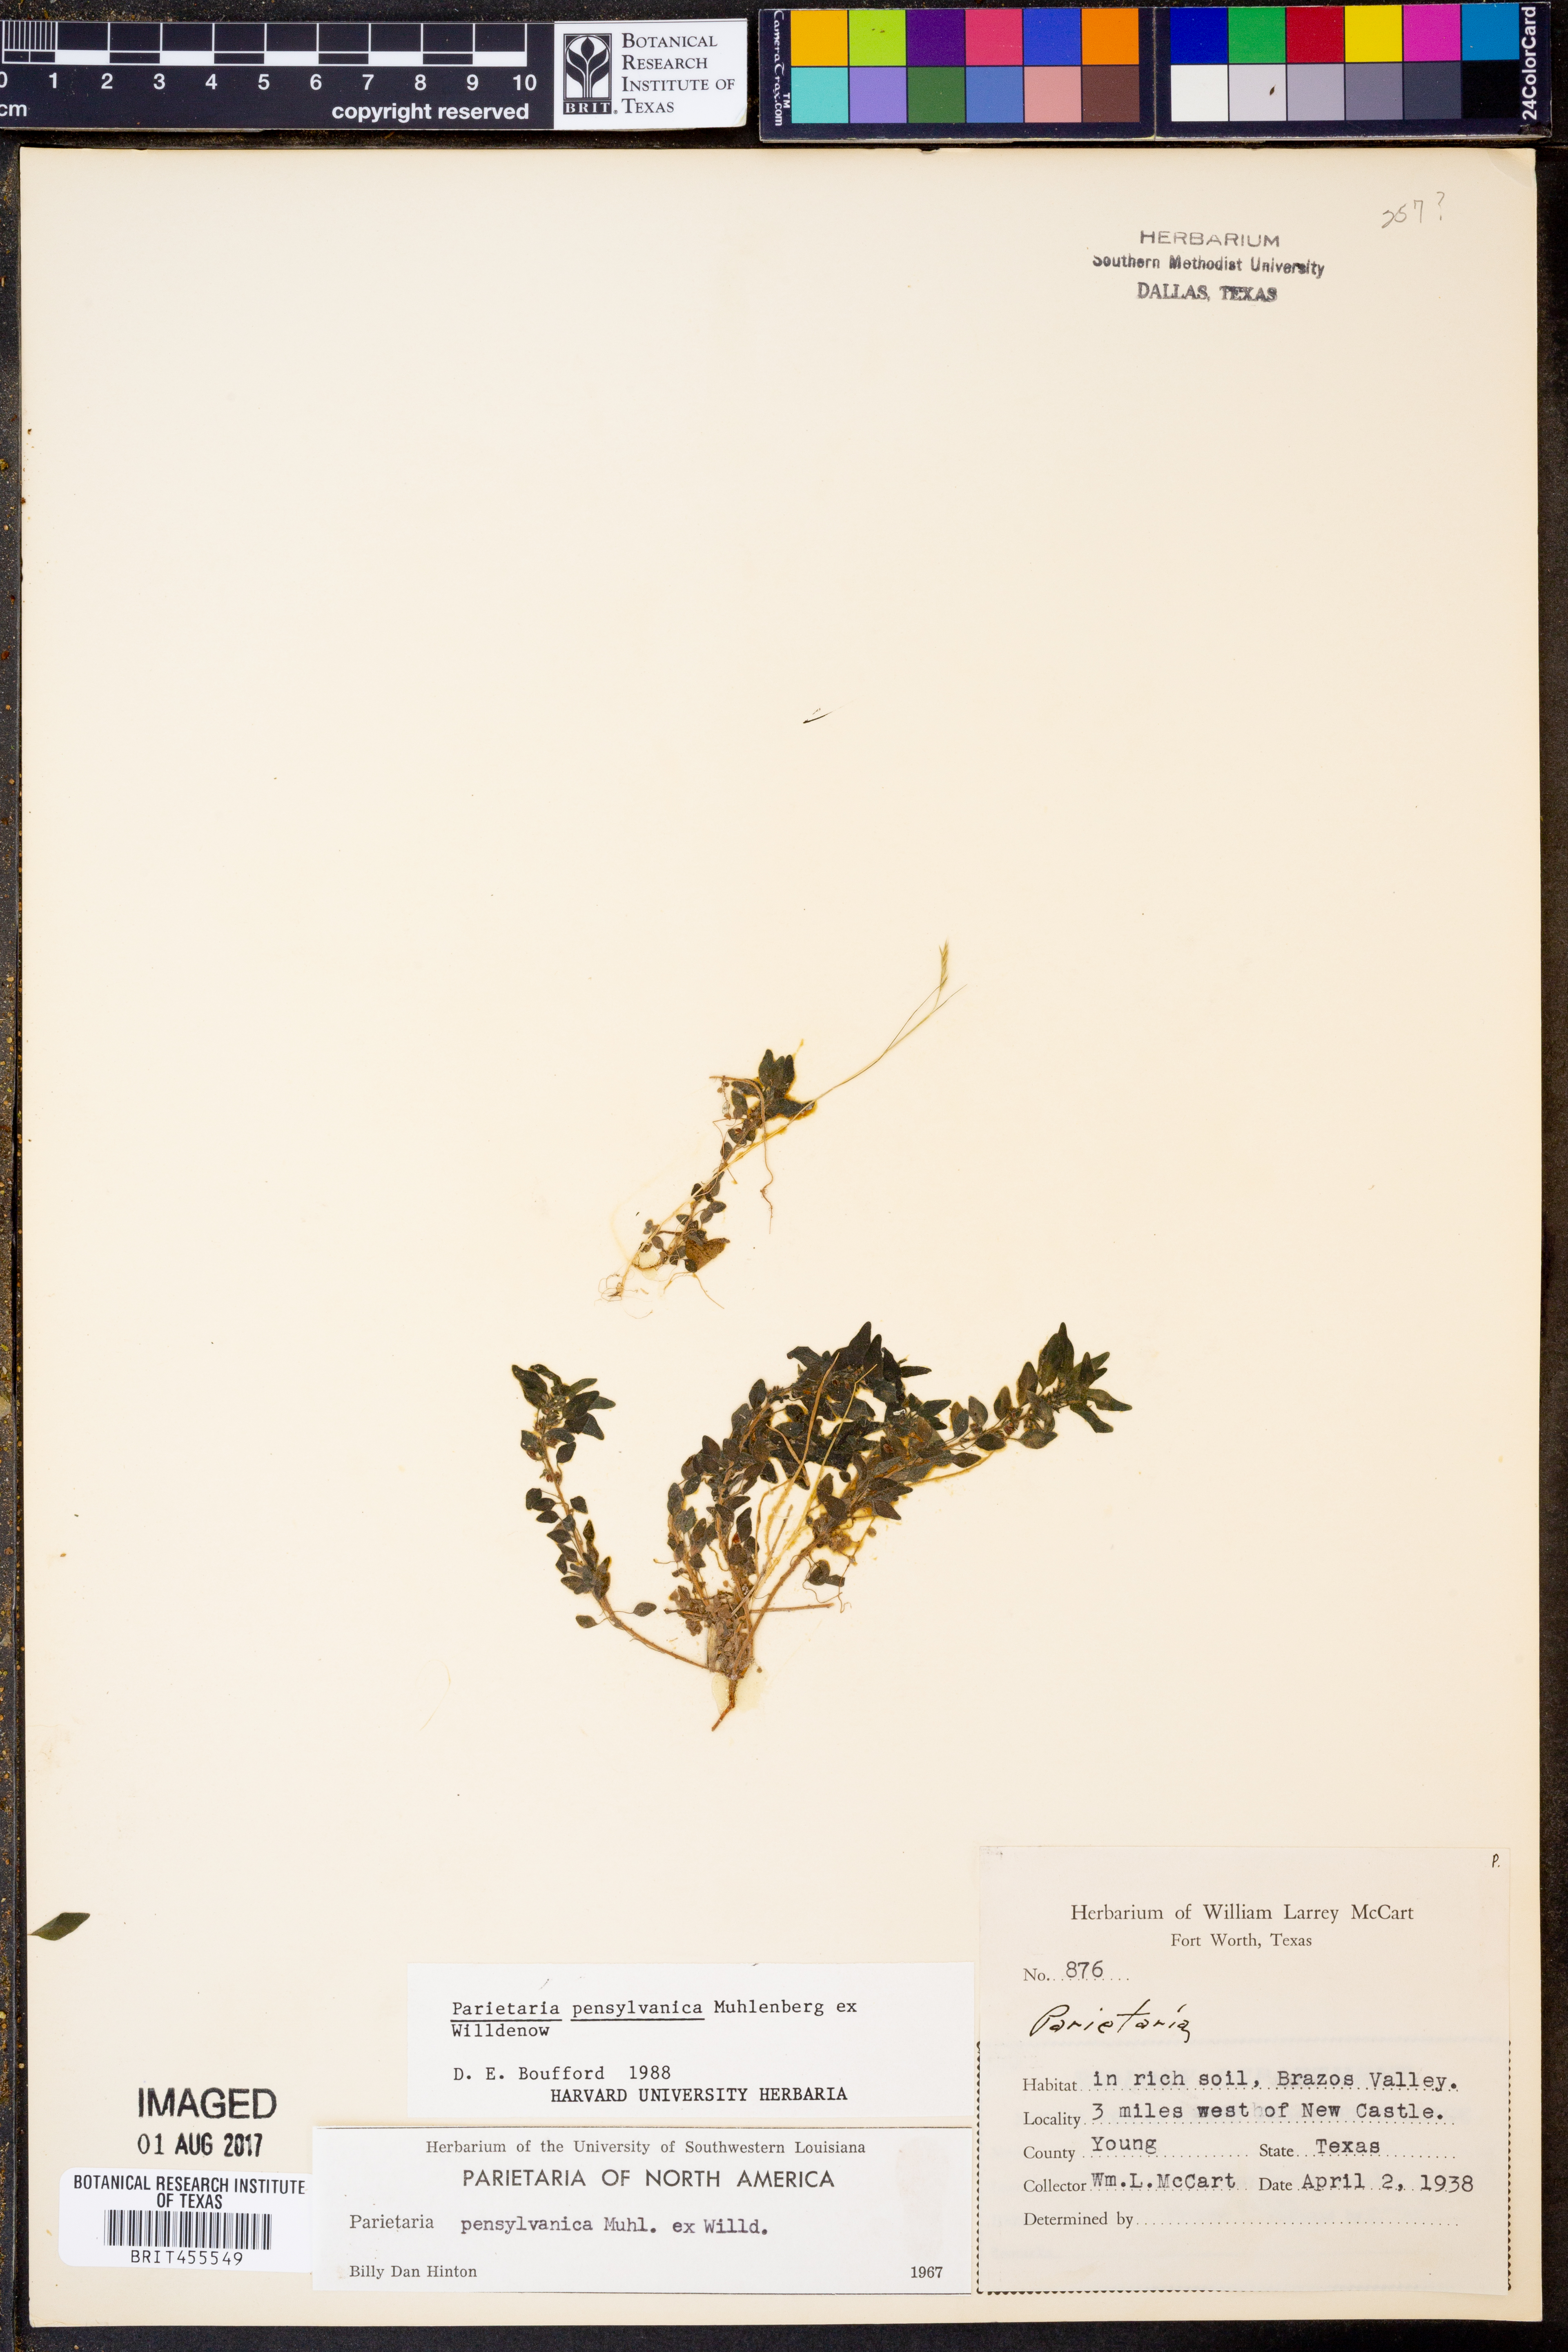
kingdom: Plantae
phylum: Tracheophyta
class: Magnoliopsida
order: Rosales
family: Urticaceae
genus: Parietaria
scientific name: Parietaria pensylvanica
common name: Pennsylvania pellitory
